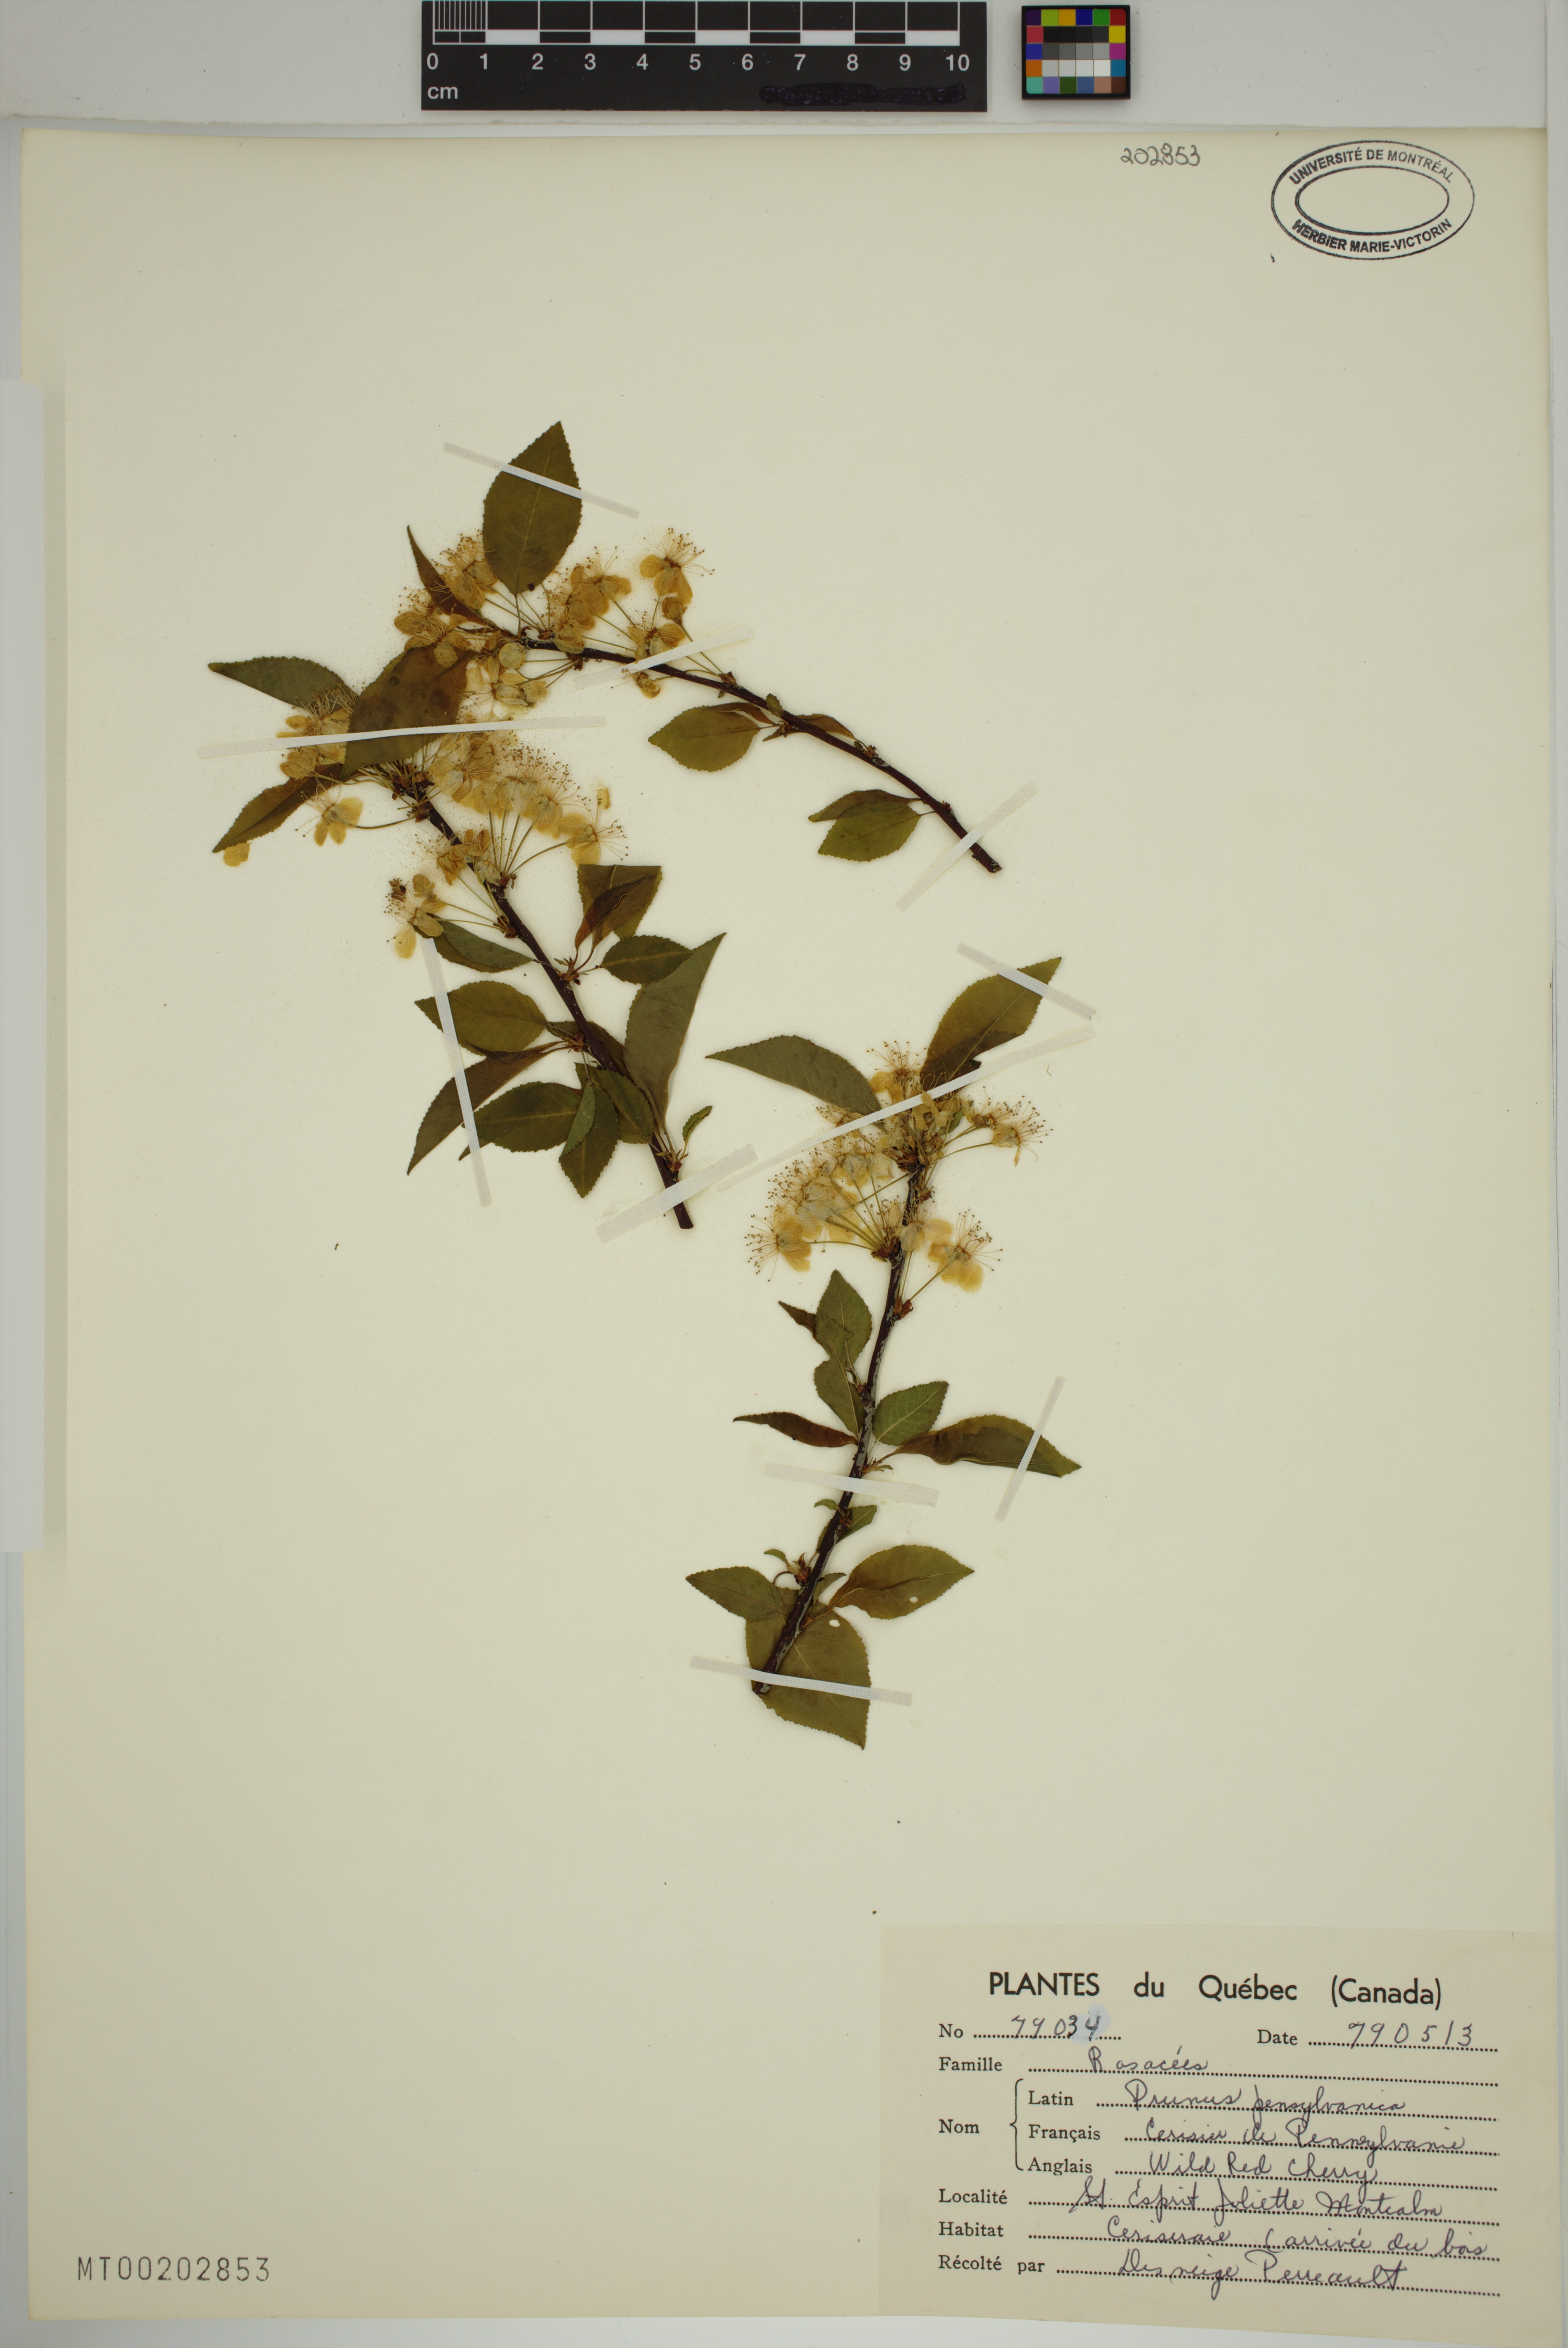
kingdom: Plantae
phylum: Tracheophyta
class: Magnoliopsida
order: Rosales
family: Rosaceae
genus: Prunus
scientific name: Prunus pensylvanica
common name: Pin cherry
